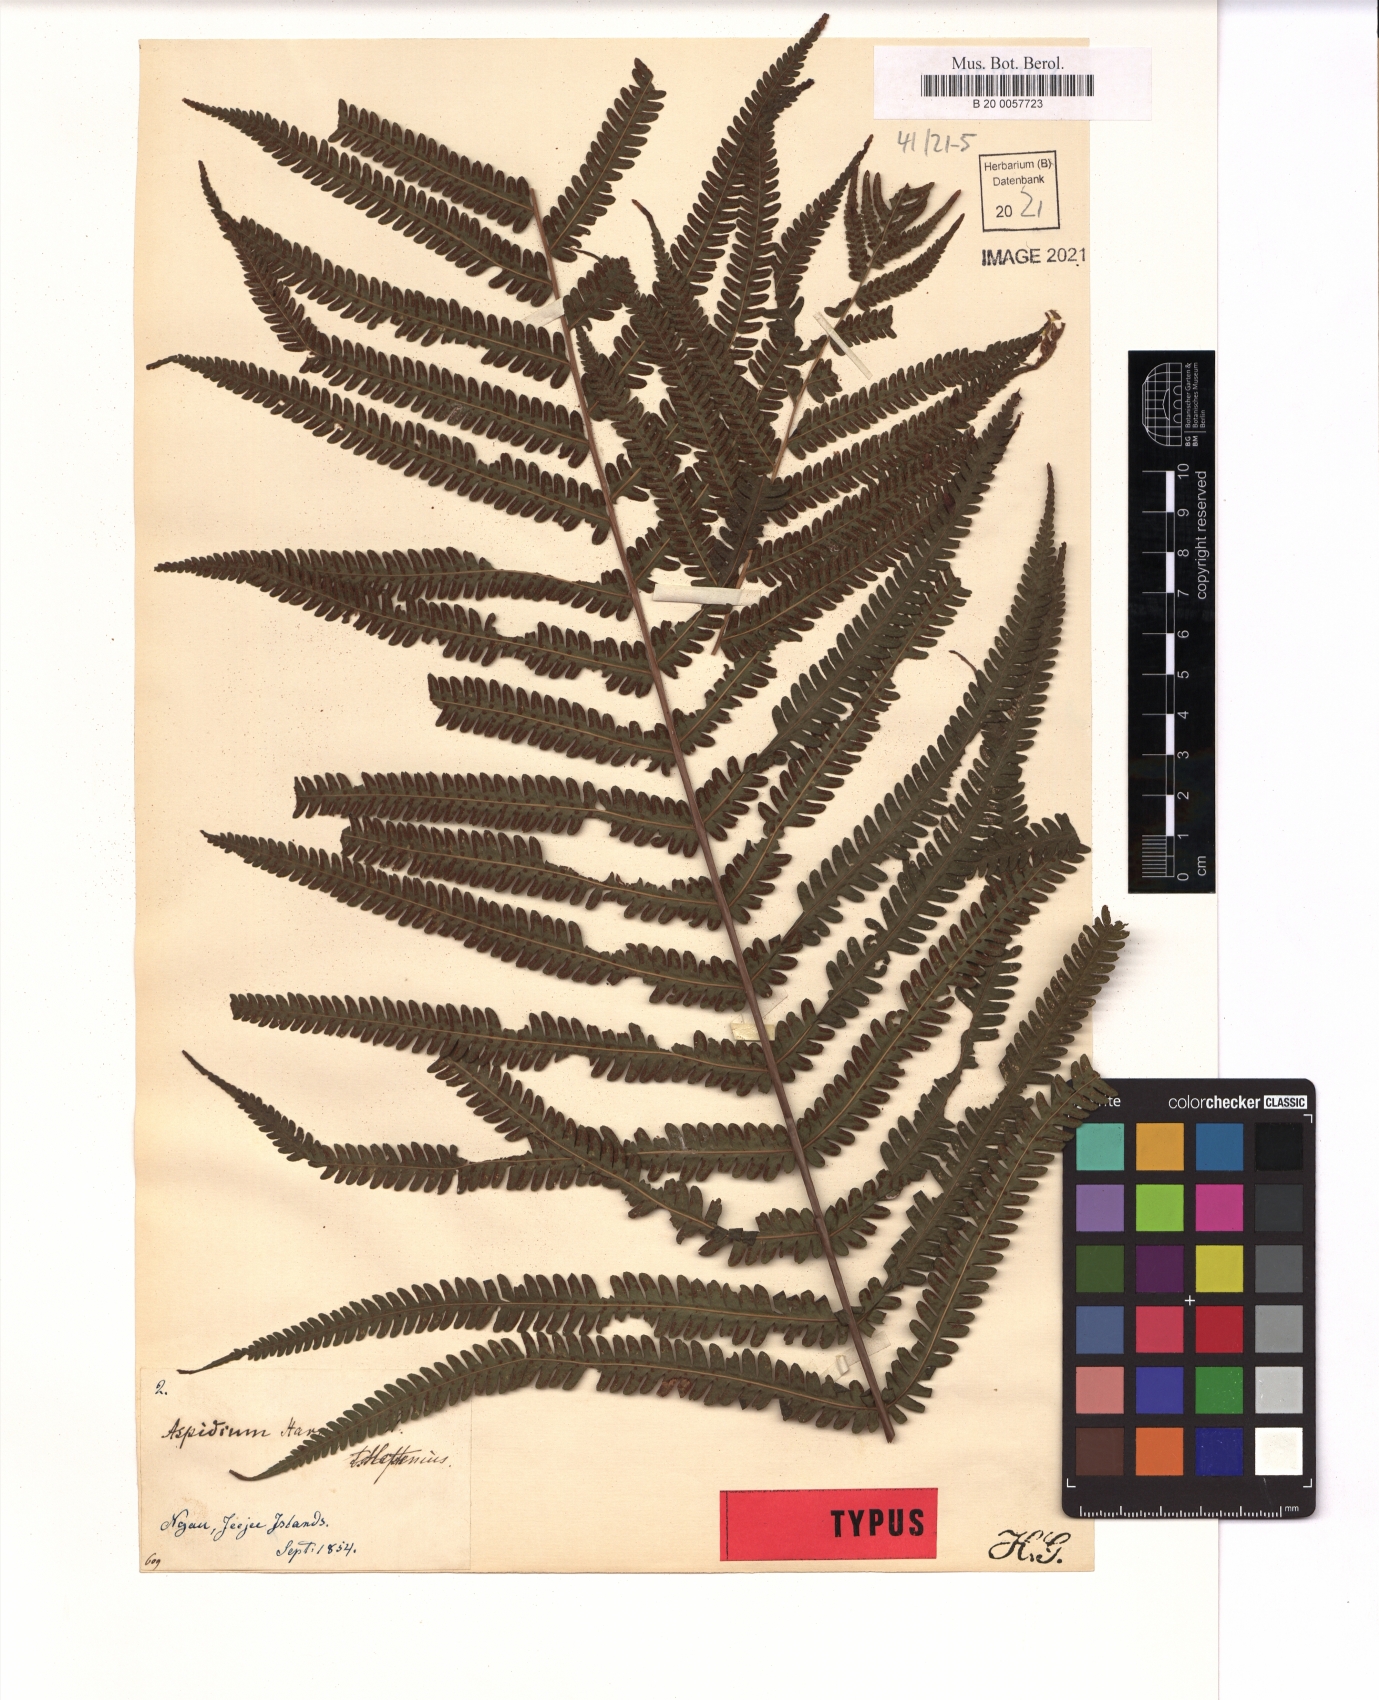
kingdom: Plantae
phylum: Tracheophyta
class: Polypodiopsida
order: Polypodiales
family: Thelypteridaceae
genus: Christella
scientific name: Christella harveyi
